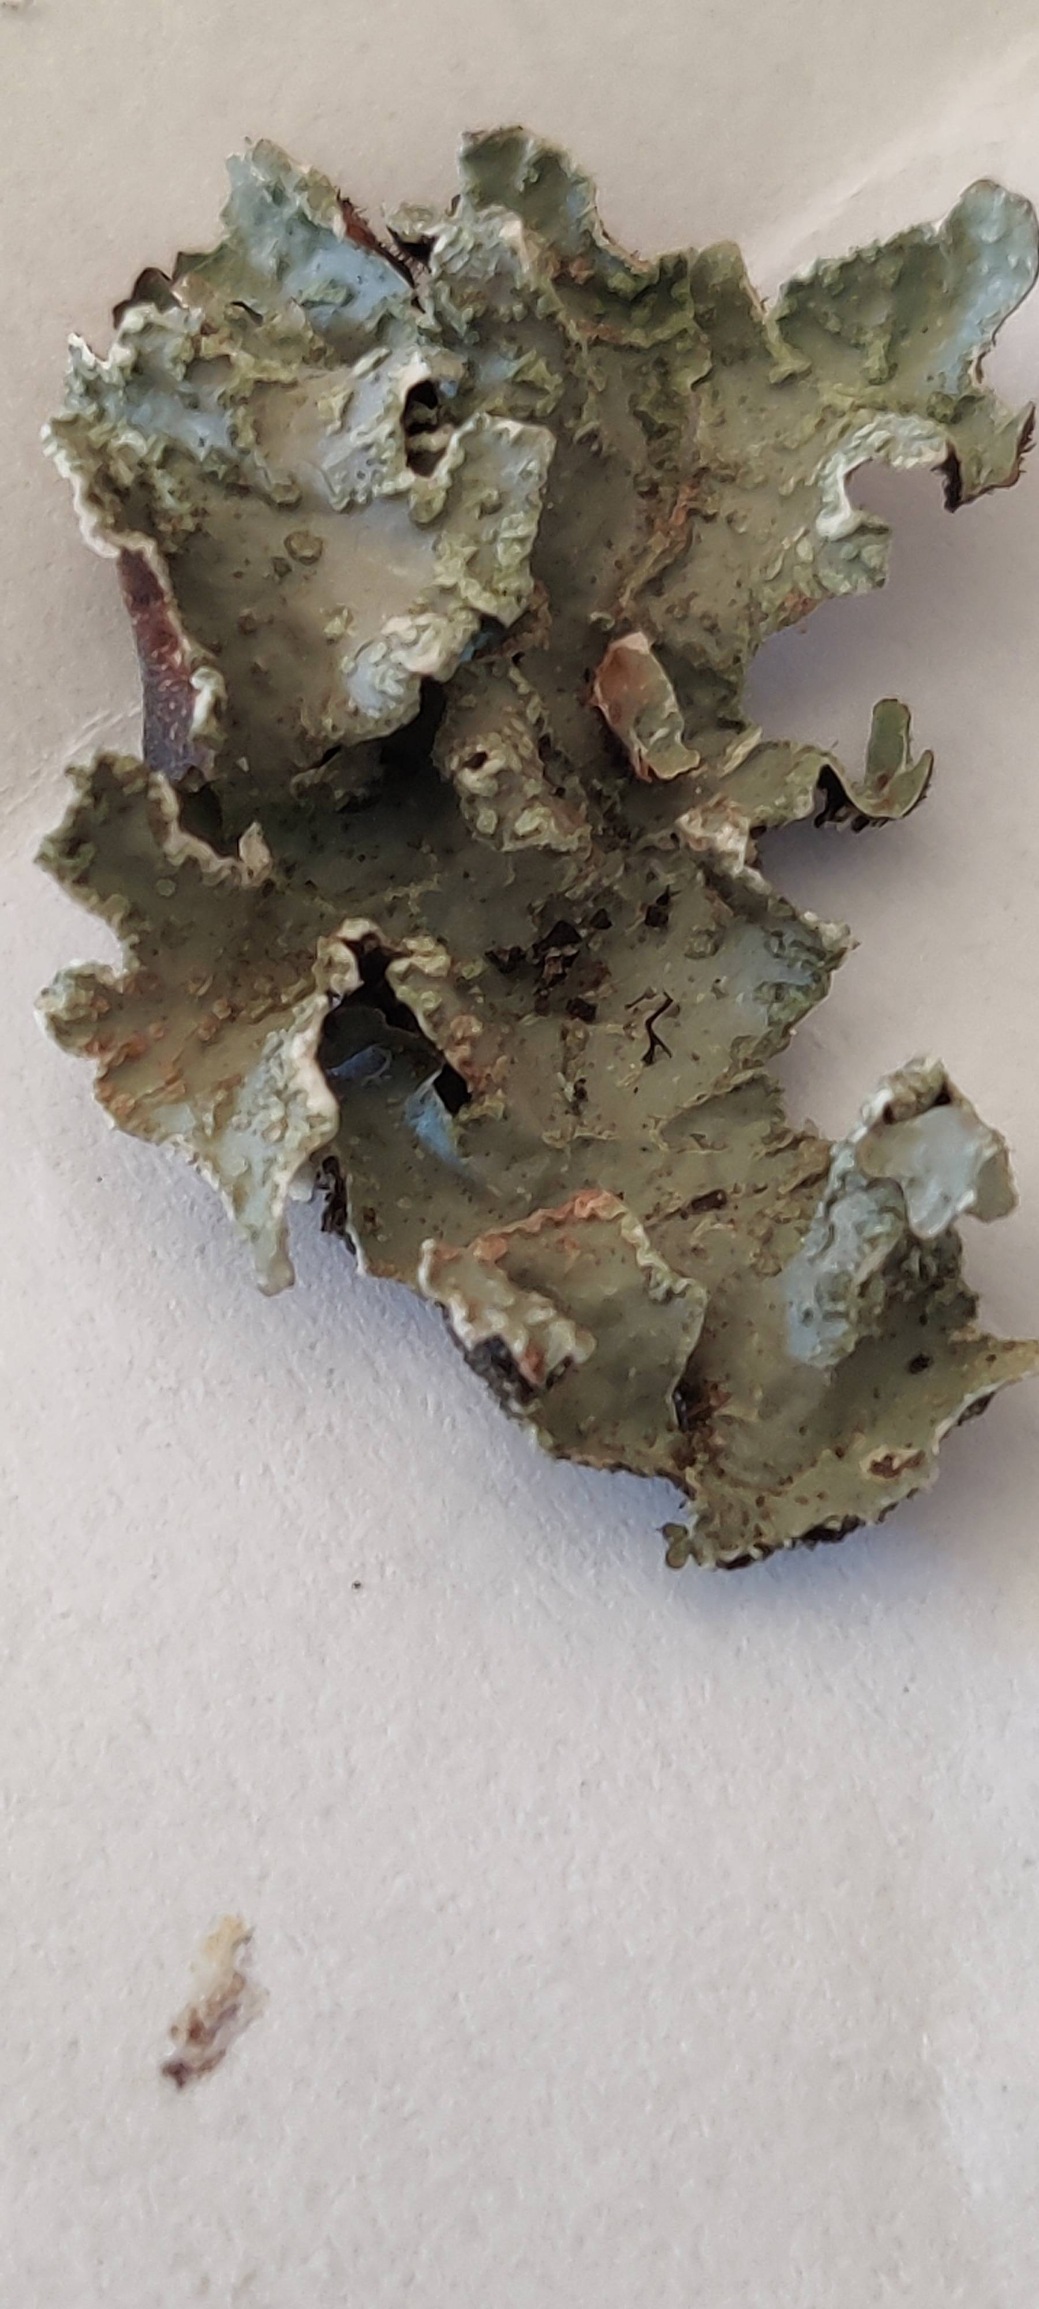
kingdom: Fungi
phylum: Ascomycota
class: Lecanoromycetes
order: Lecanorales
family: Parmeliaceae
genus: Parmelia
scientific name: Parmelia sulcata
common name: Rynket skållav
